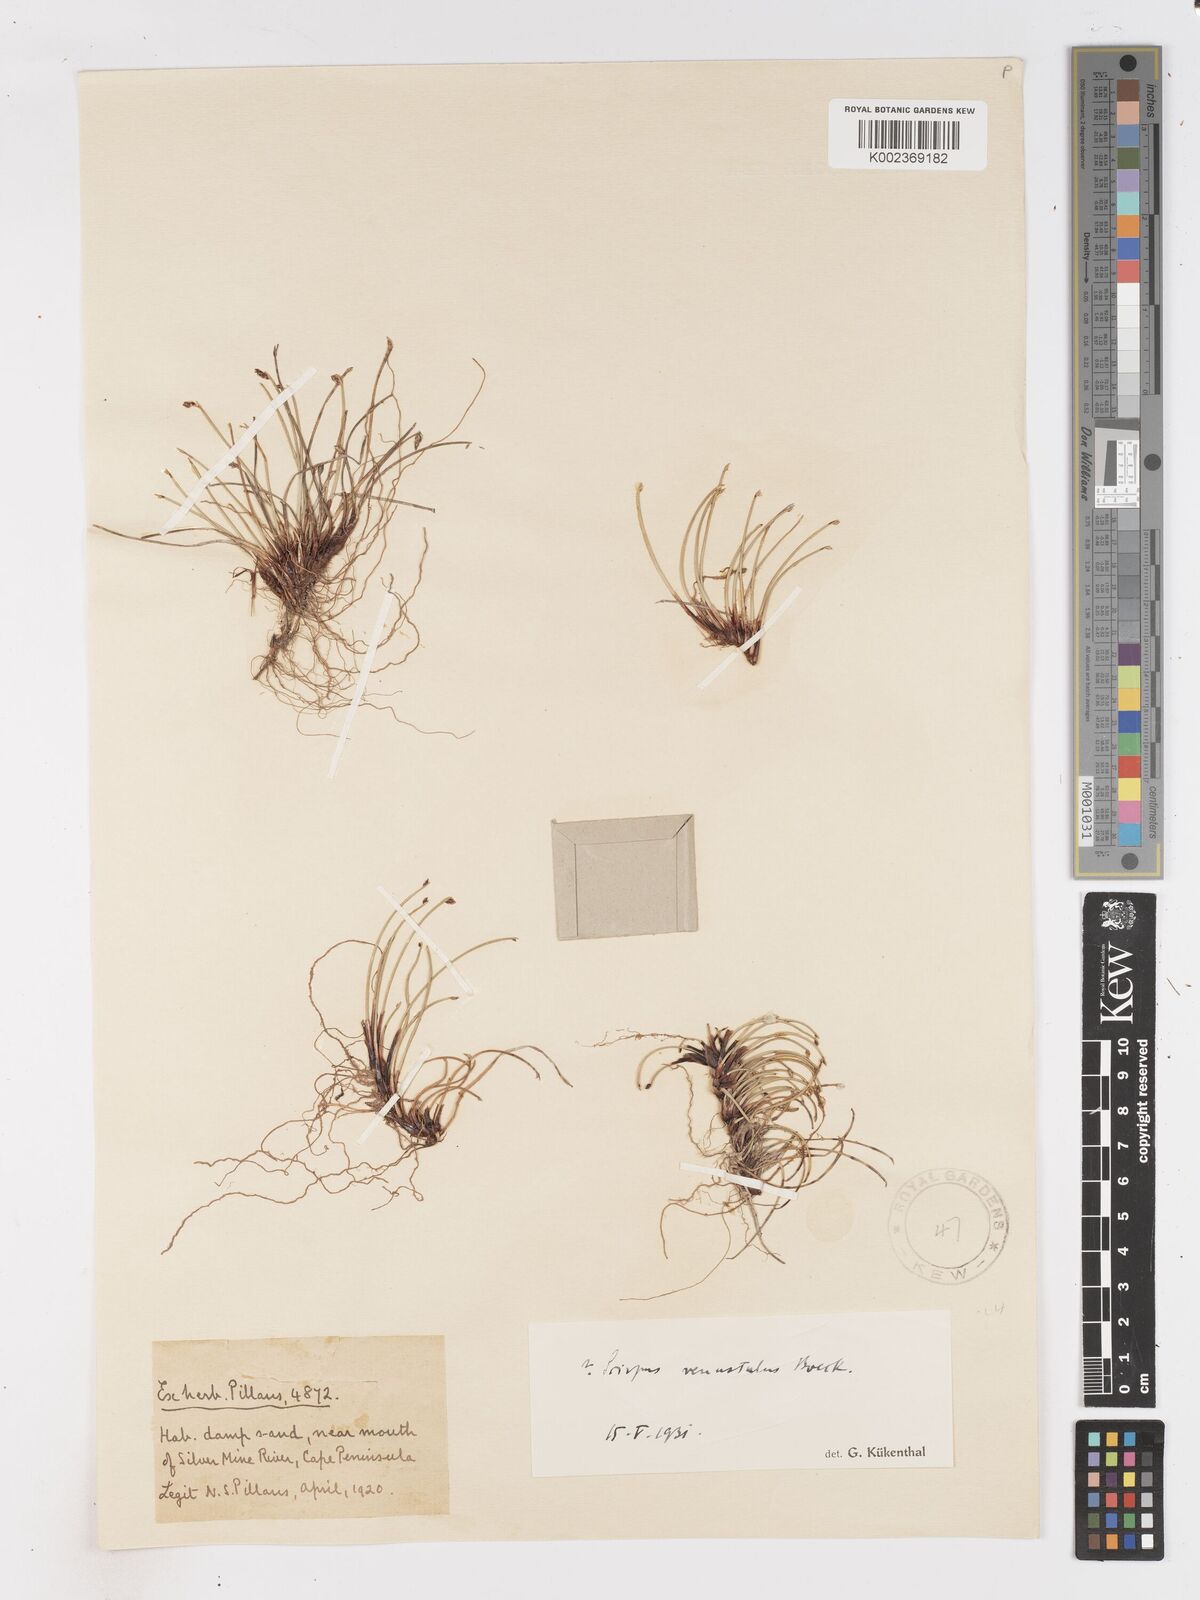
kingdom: Plantae
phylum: Tracheophyta
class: Liliopsida
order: Poales
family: Cyperaceae
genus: Isolepis
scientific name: Isolepis venustula
